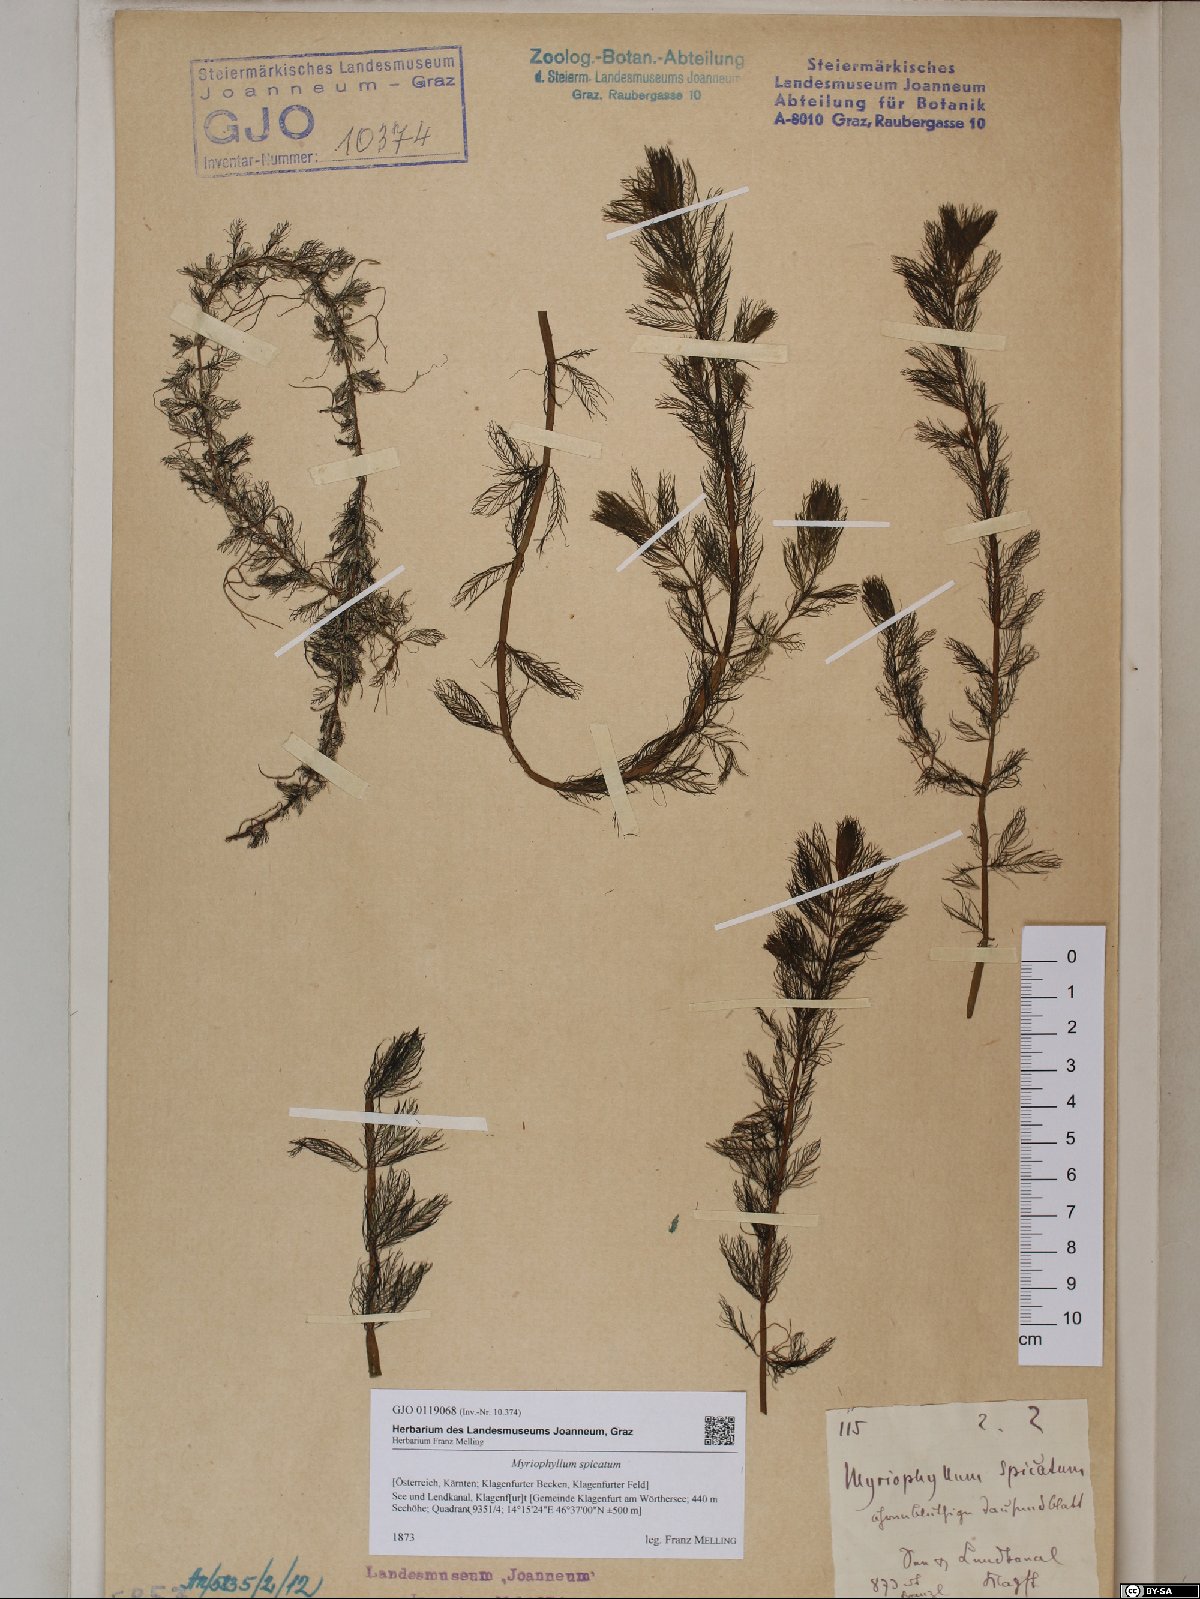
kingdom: Plantae
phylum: Tracheophyta
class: Magnoliopsida
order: Saxifragales
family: Haloragaceae
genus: Myriophyllum
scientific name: Myriophyllum spicatum
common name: Spiked water-milfoil
